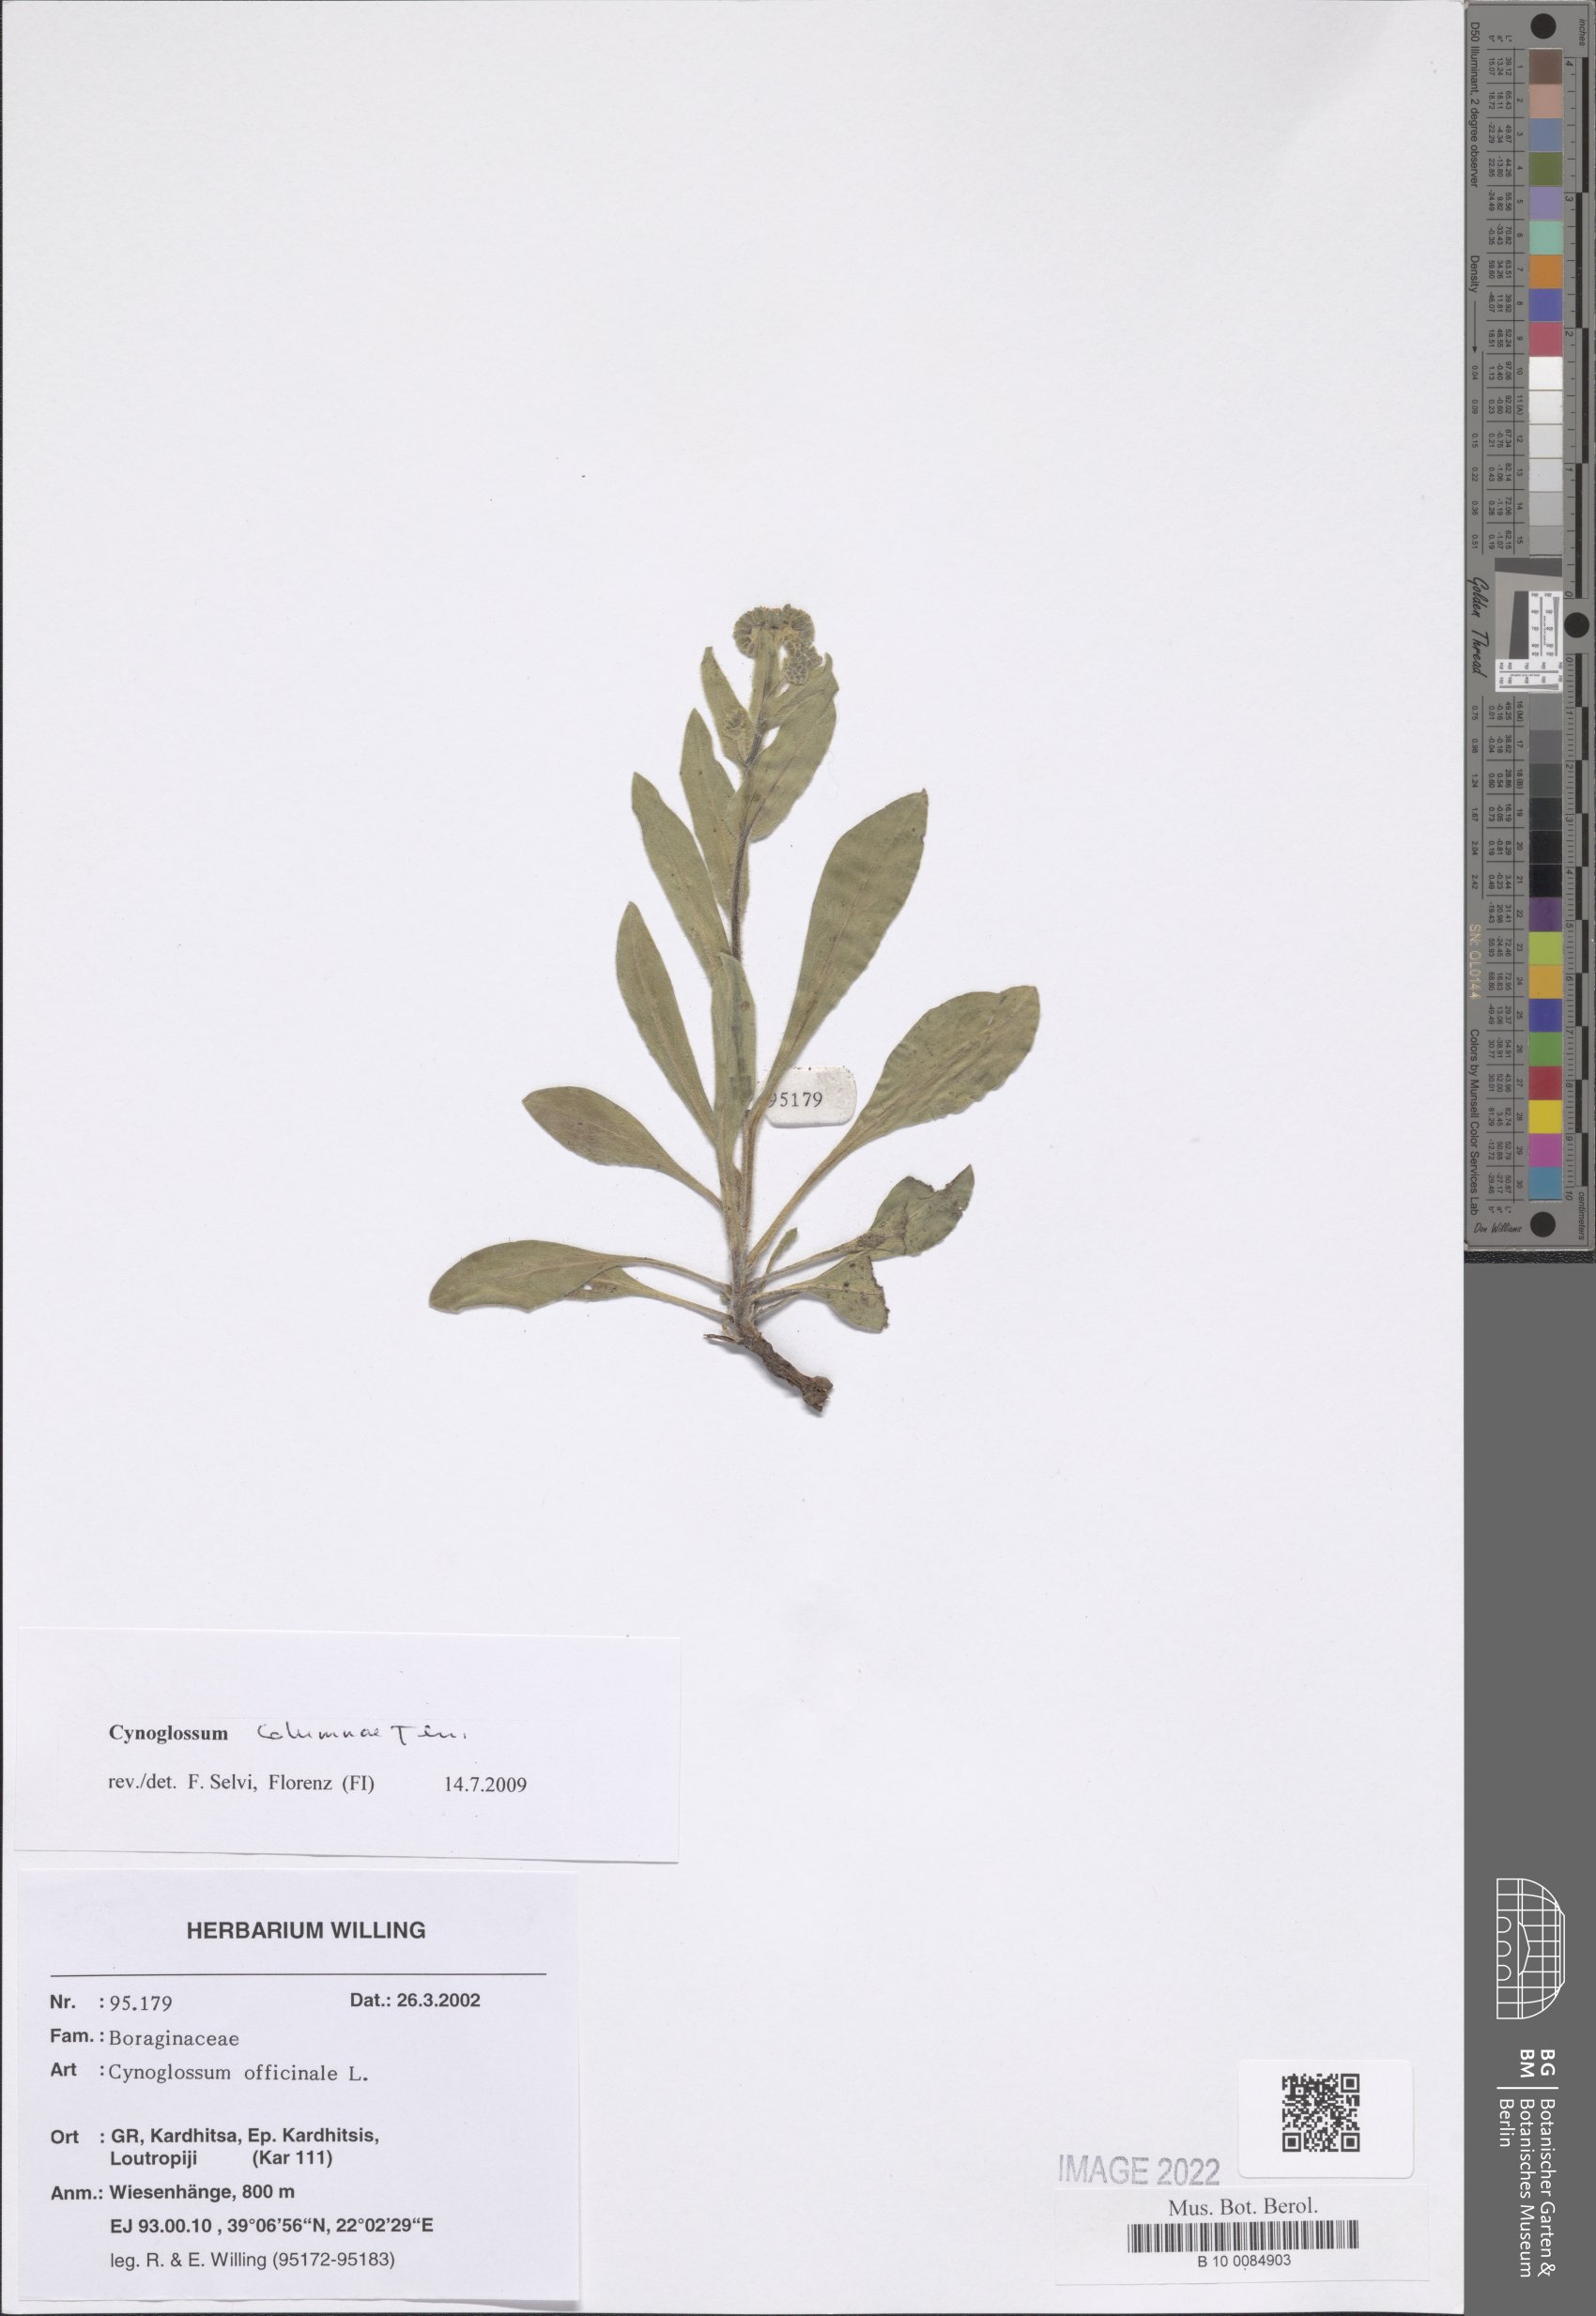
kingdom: Plantae
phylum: Tracheophyta
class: Magnoliopsida
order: Boraginales
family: Boraginaceae
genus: Rindera
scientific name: Rindera columnae
